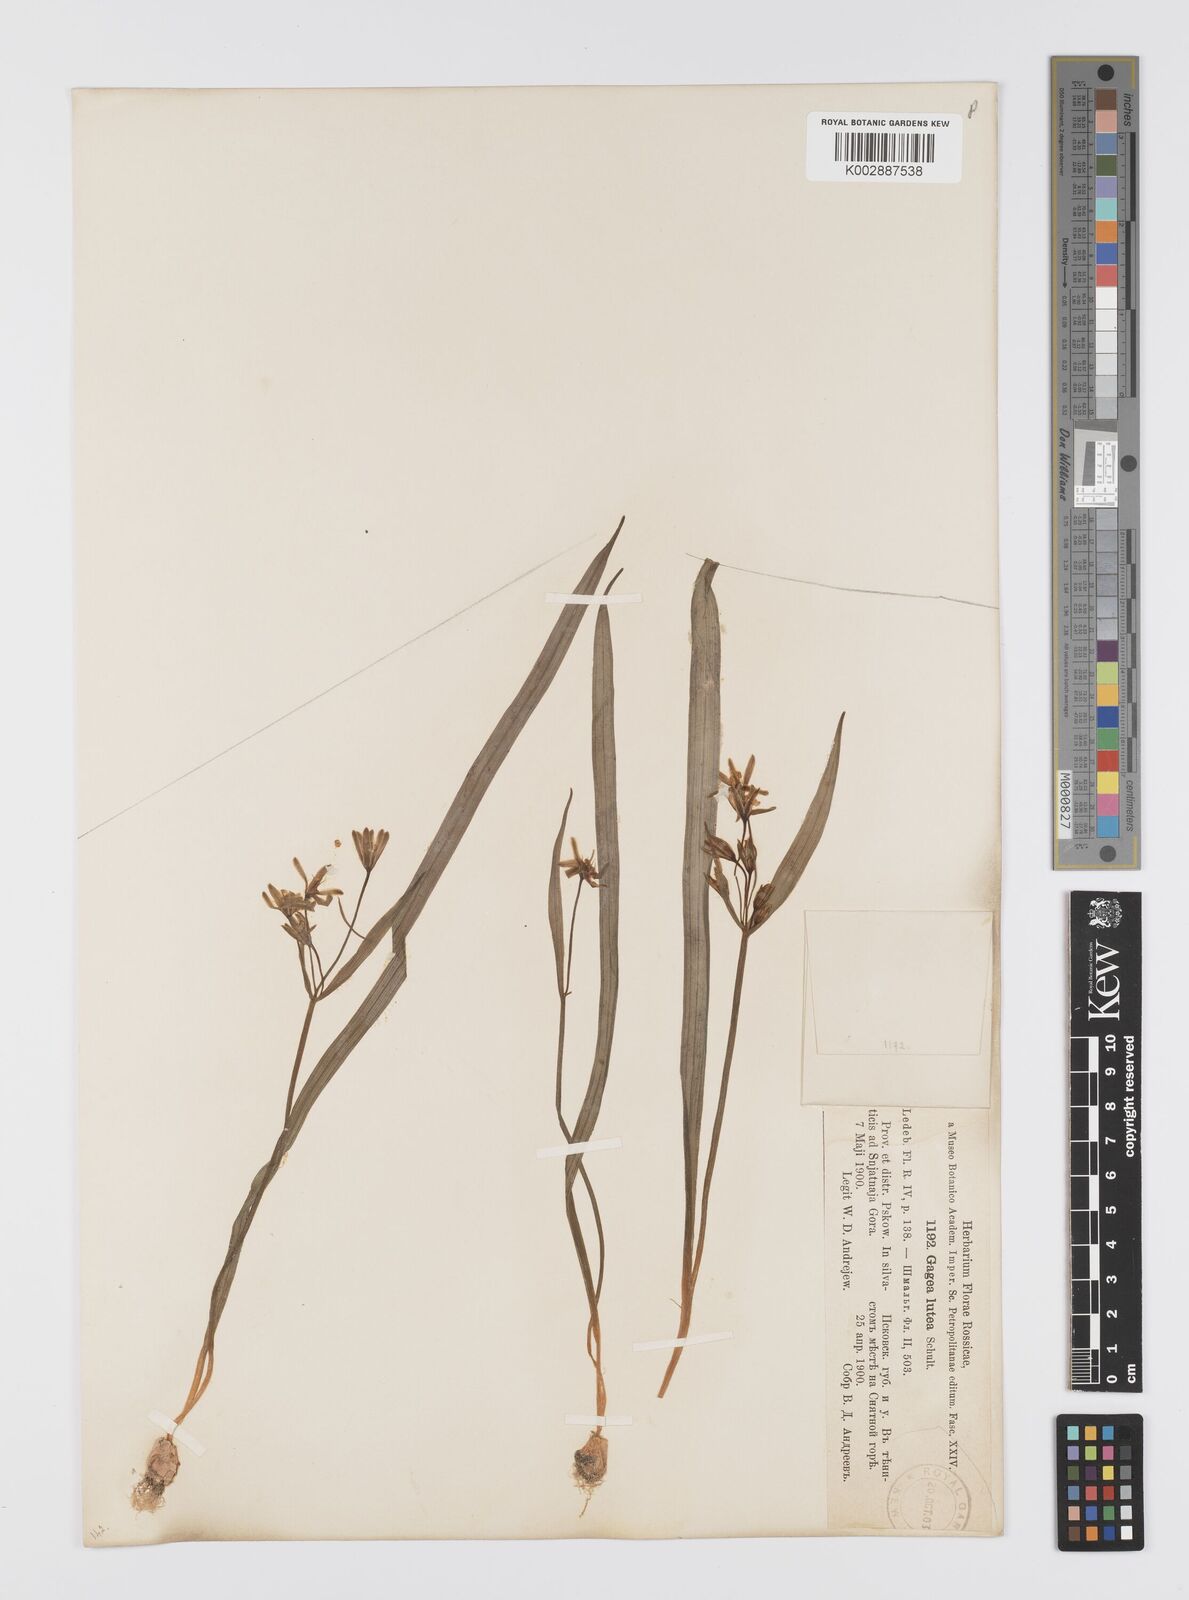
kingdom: Plantae
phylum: Tracheophyta
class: Liliopsida
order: Liliales
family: Liliaceae
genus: Gagea
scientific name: Gagea lutea
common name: Yellow star-of-bethlehem
